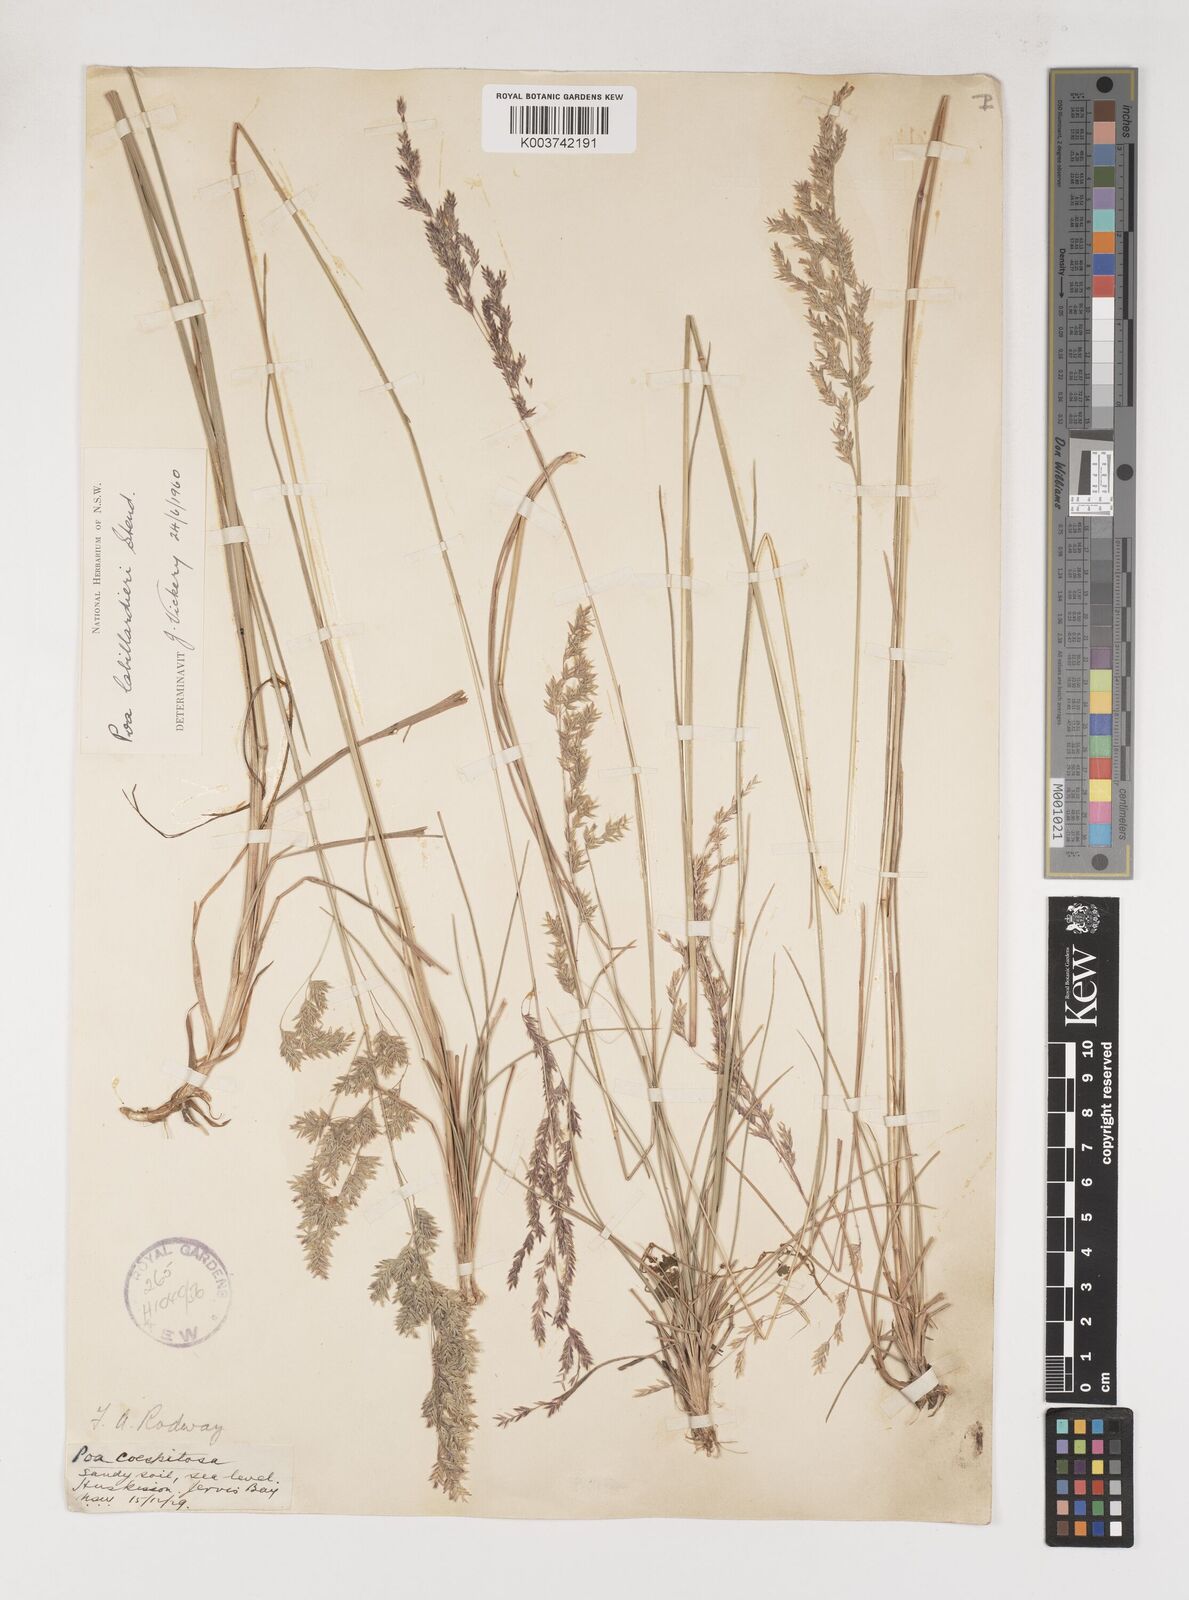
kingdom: Plantae
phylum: Tracheophyta
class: Liliopsida
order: Poales
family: Poaceae
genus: Poa
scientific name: Poa labillardierei
